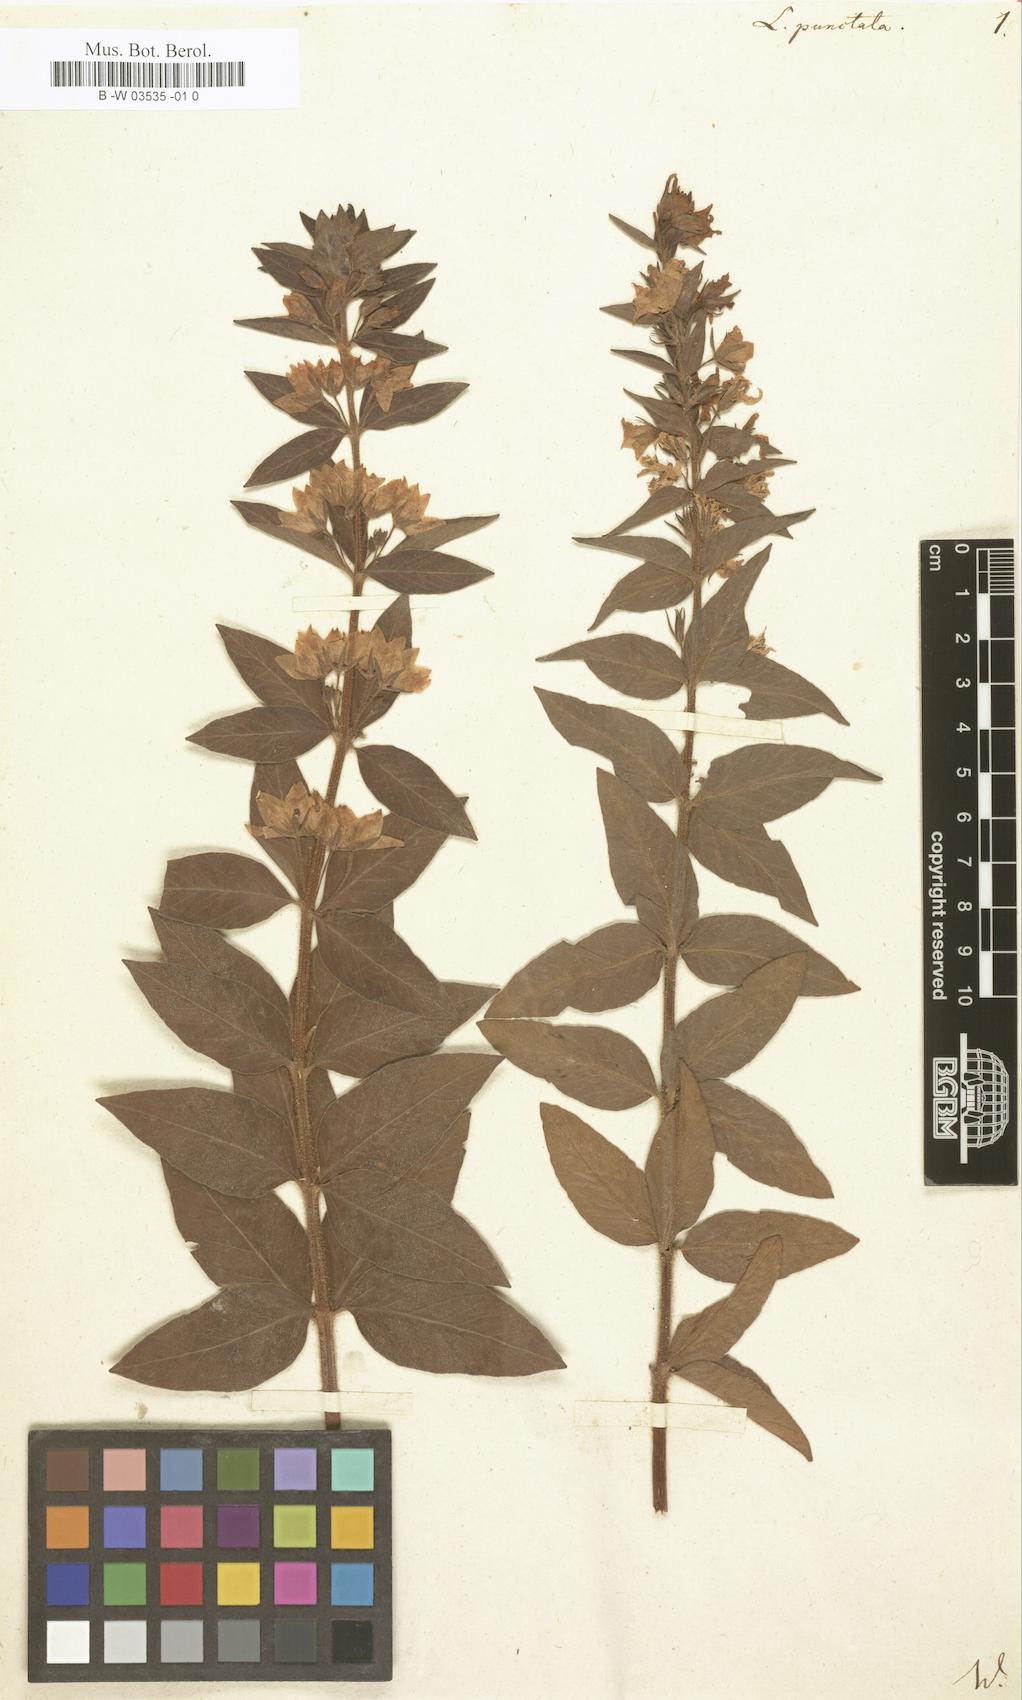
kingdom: Plantae
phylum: Tracheophyta
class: Magnoliopsida
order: Ericales
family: Primulaceae
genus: Lysimachia
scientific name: Lysimachia punctata
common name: Dotted loosestrife
